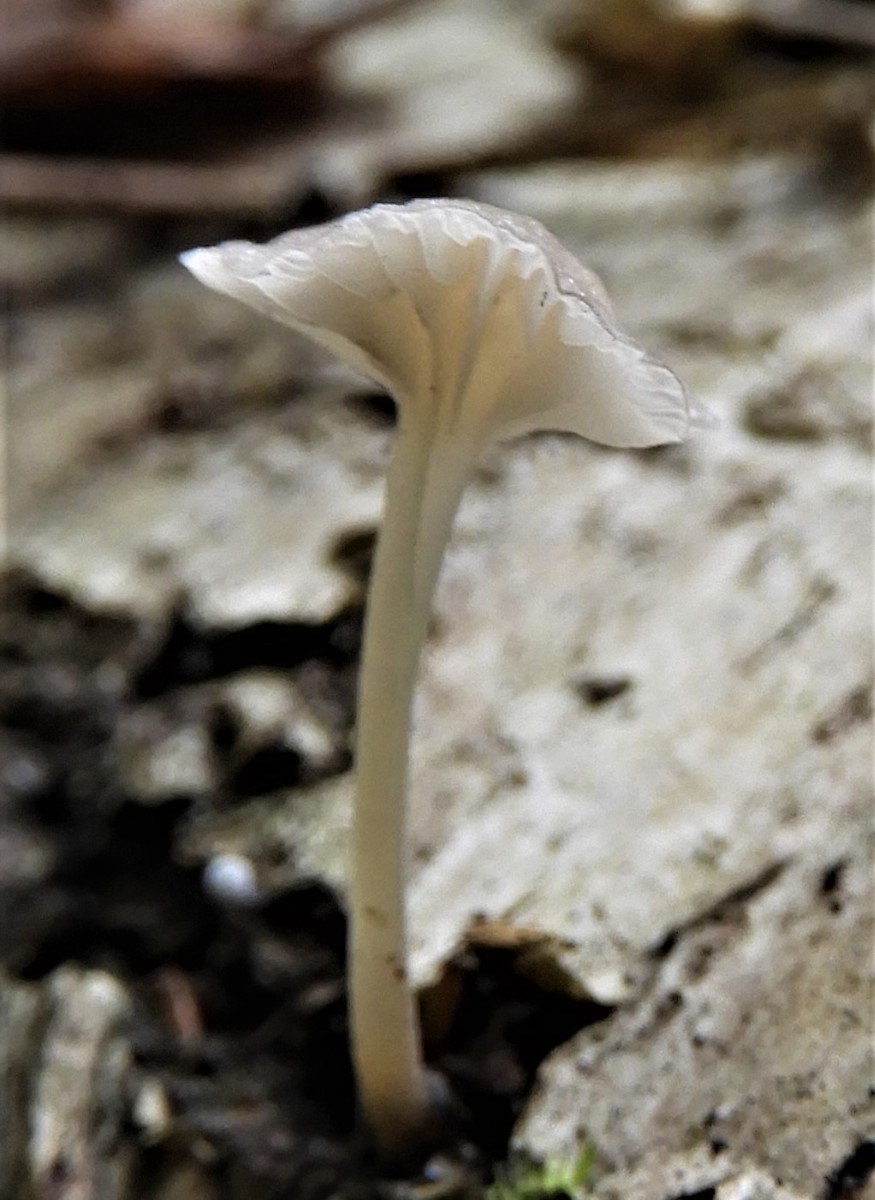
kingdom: Fungi
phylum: Basidiomycota
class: Agaricomycetes
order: Agaricales
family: Porotheleaceae
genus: Phloeomana
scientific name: Phloeomana speirea
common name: kvist-huesvamp
